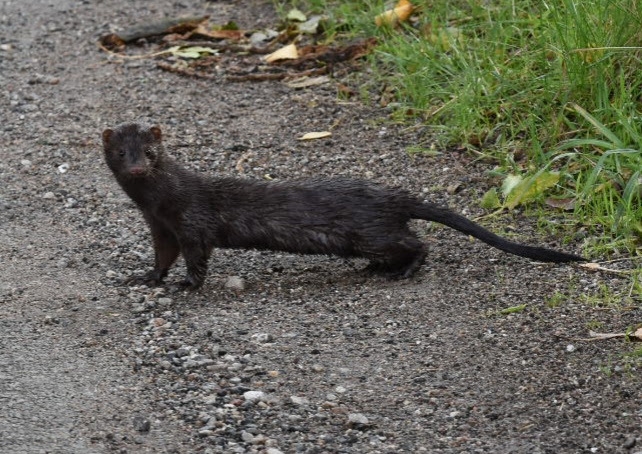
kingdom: Animalia
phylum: Chordata
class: Mammalia
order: Carnivora
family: Mustelidae
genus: Mustela
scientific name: Mustela vison
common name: Mink
